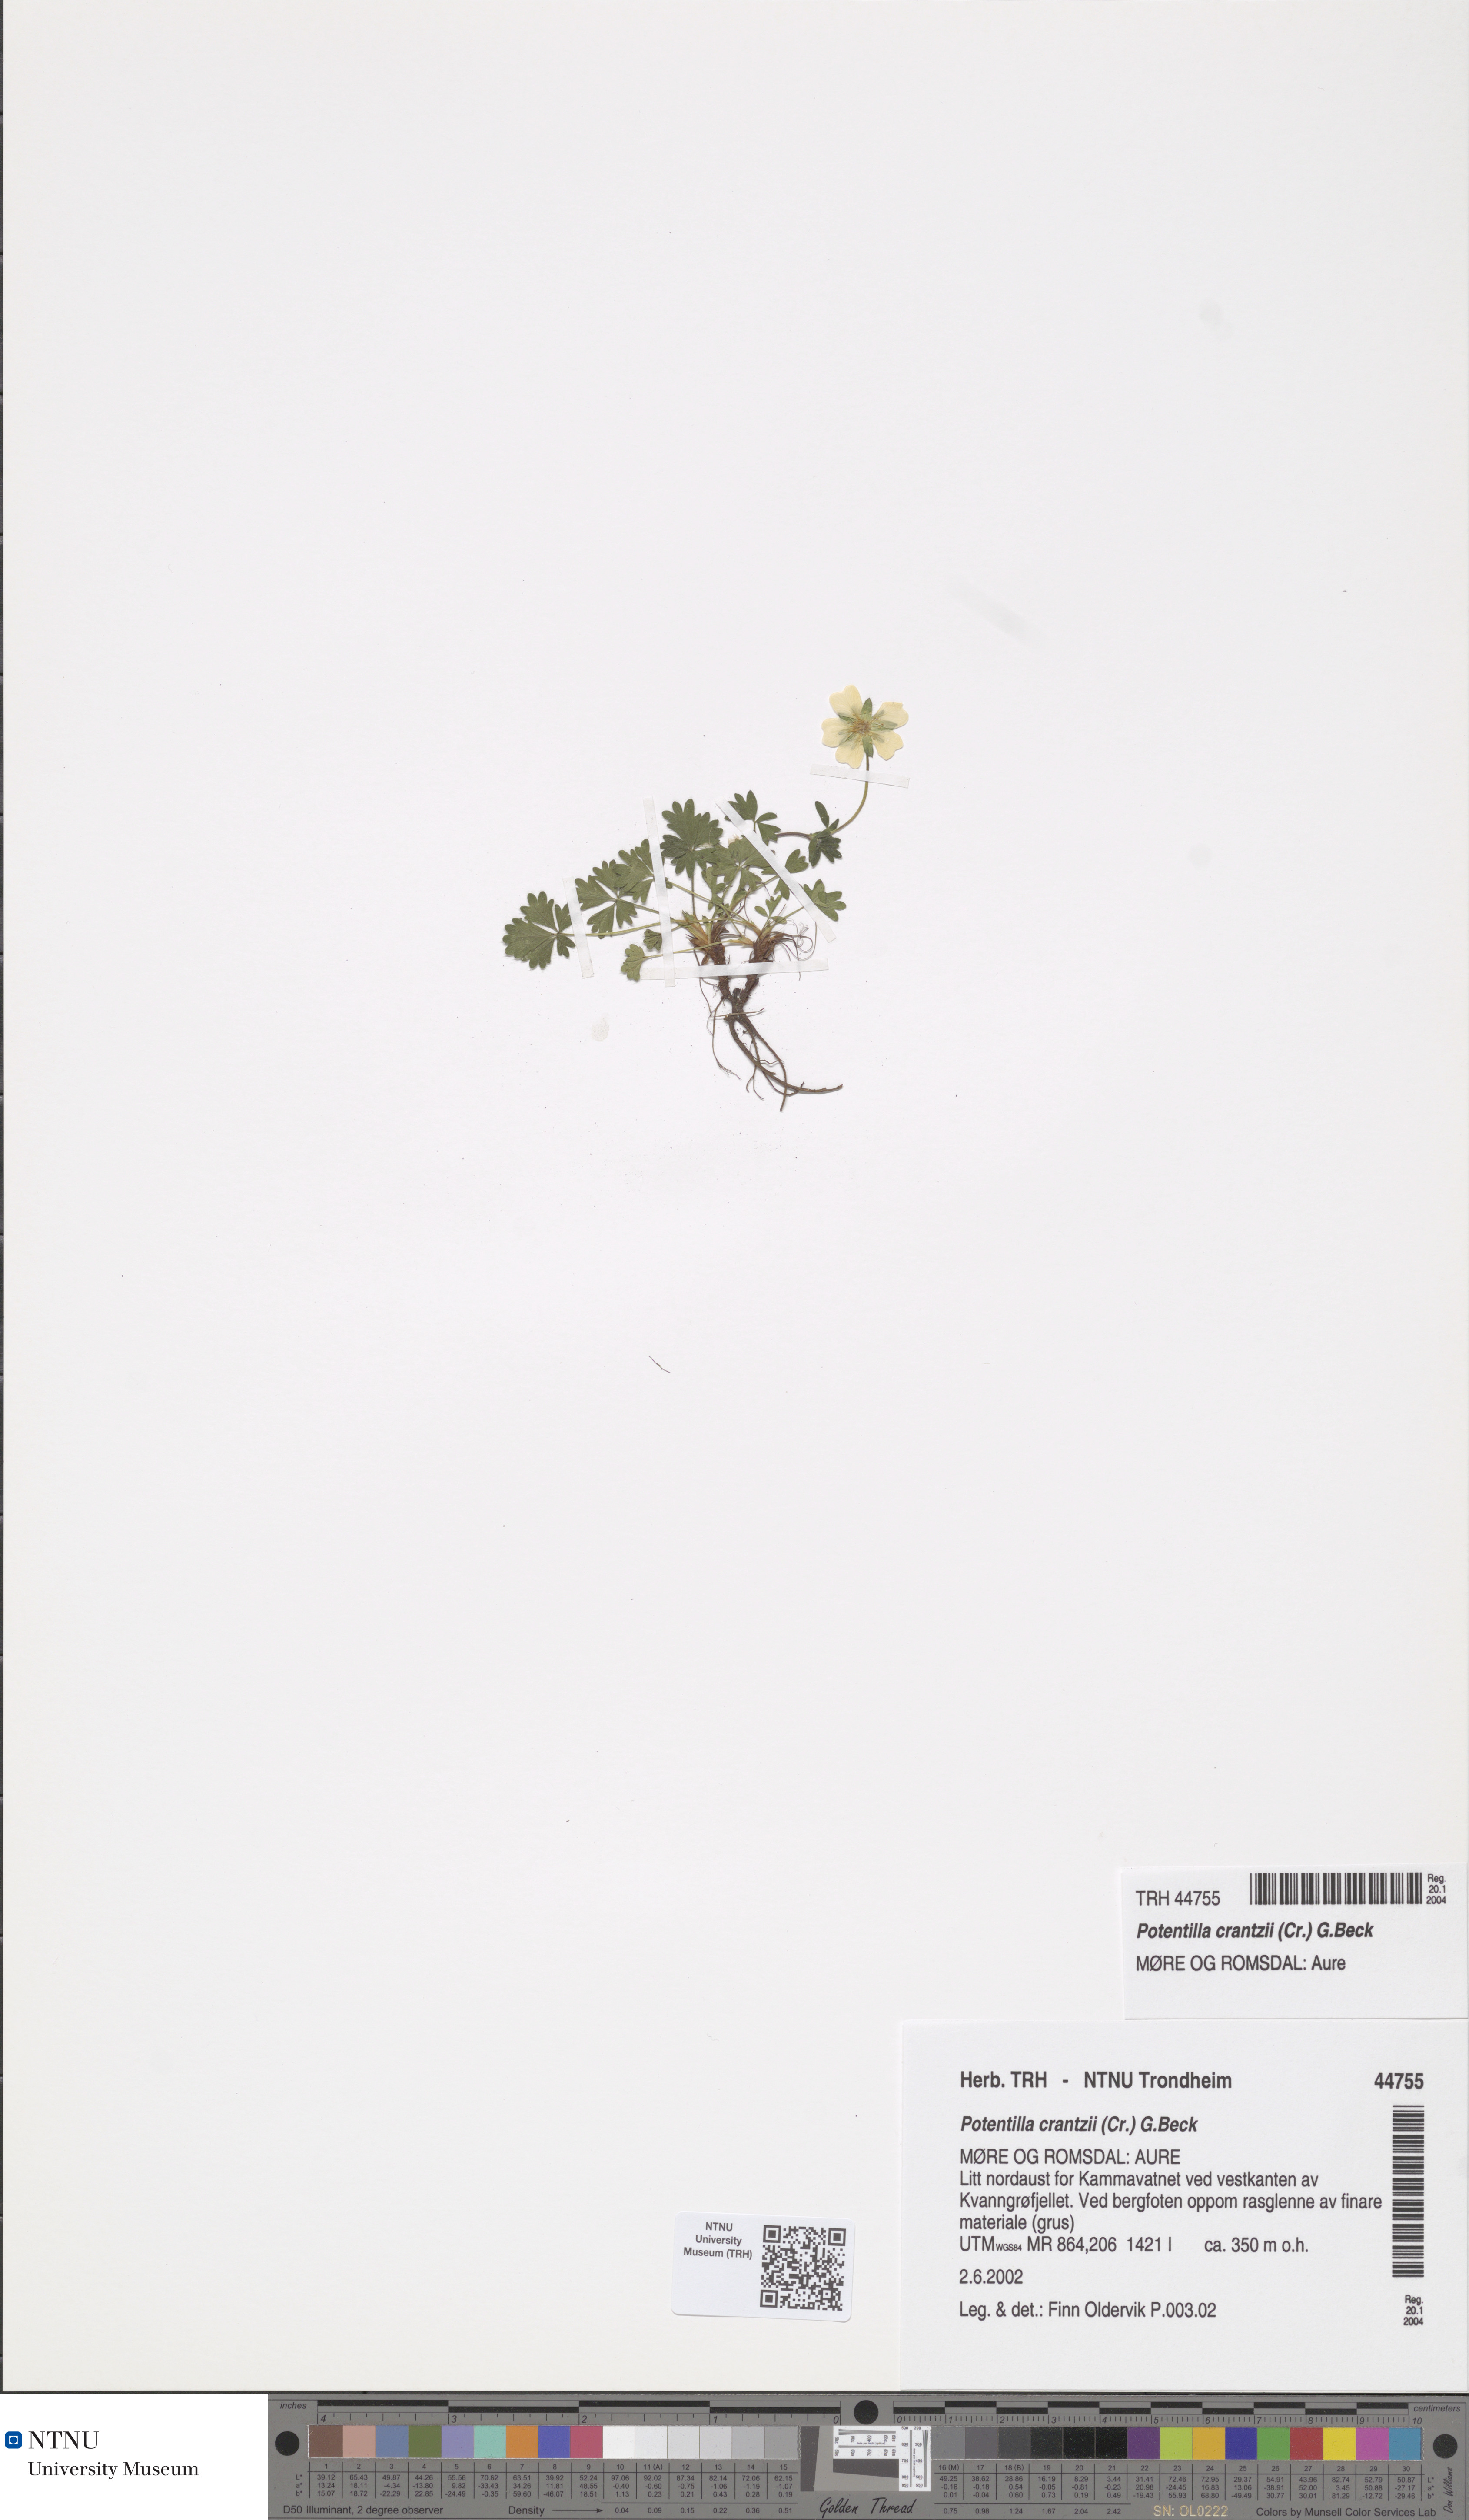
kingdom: Plantae
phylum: Tracheophyta
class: Magnoliopsida
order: Rosales
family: Rosaceae
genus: Potentilla
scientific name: Potentilla crantzii
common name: Alpine cinquefoil
